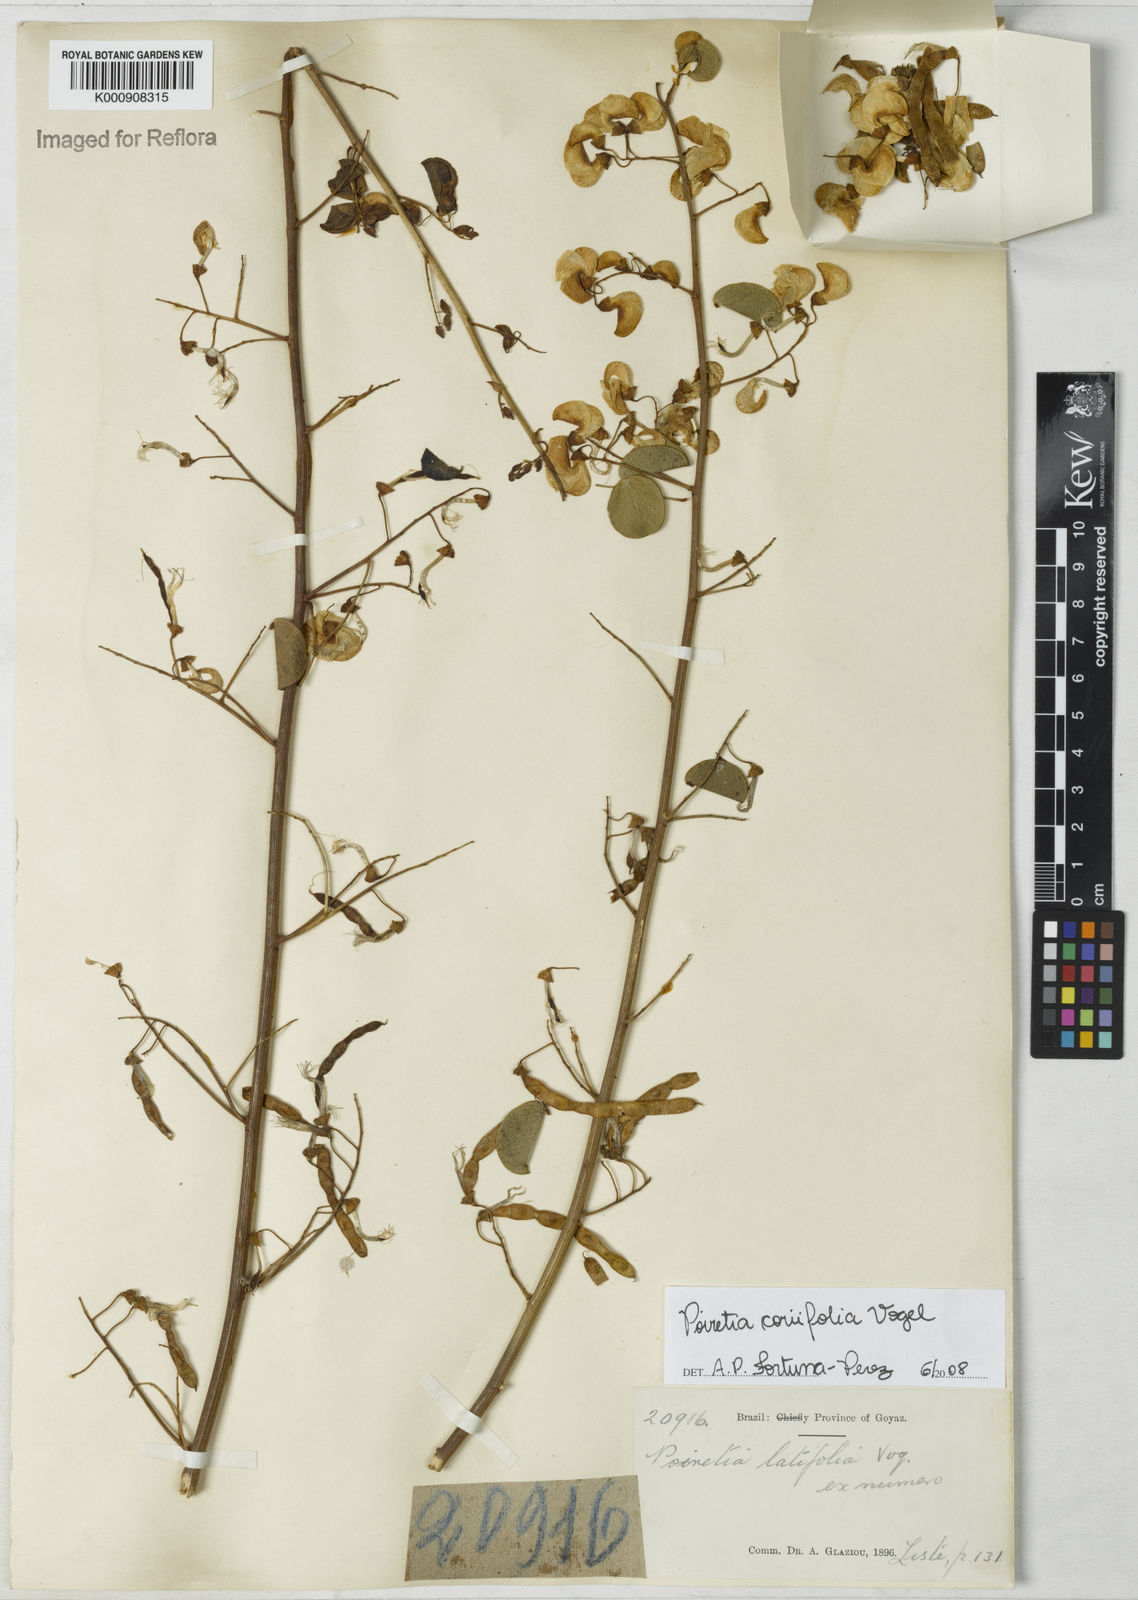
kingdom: Plantae
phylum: Tracheophyta
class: Magnoliopsida
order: Fabales
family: Fabaceae
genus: Poiretia
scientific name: Poiretia coriifolia
